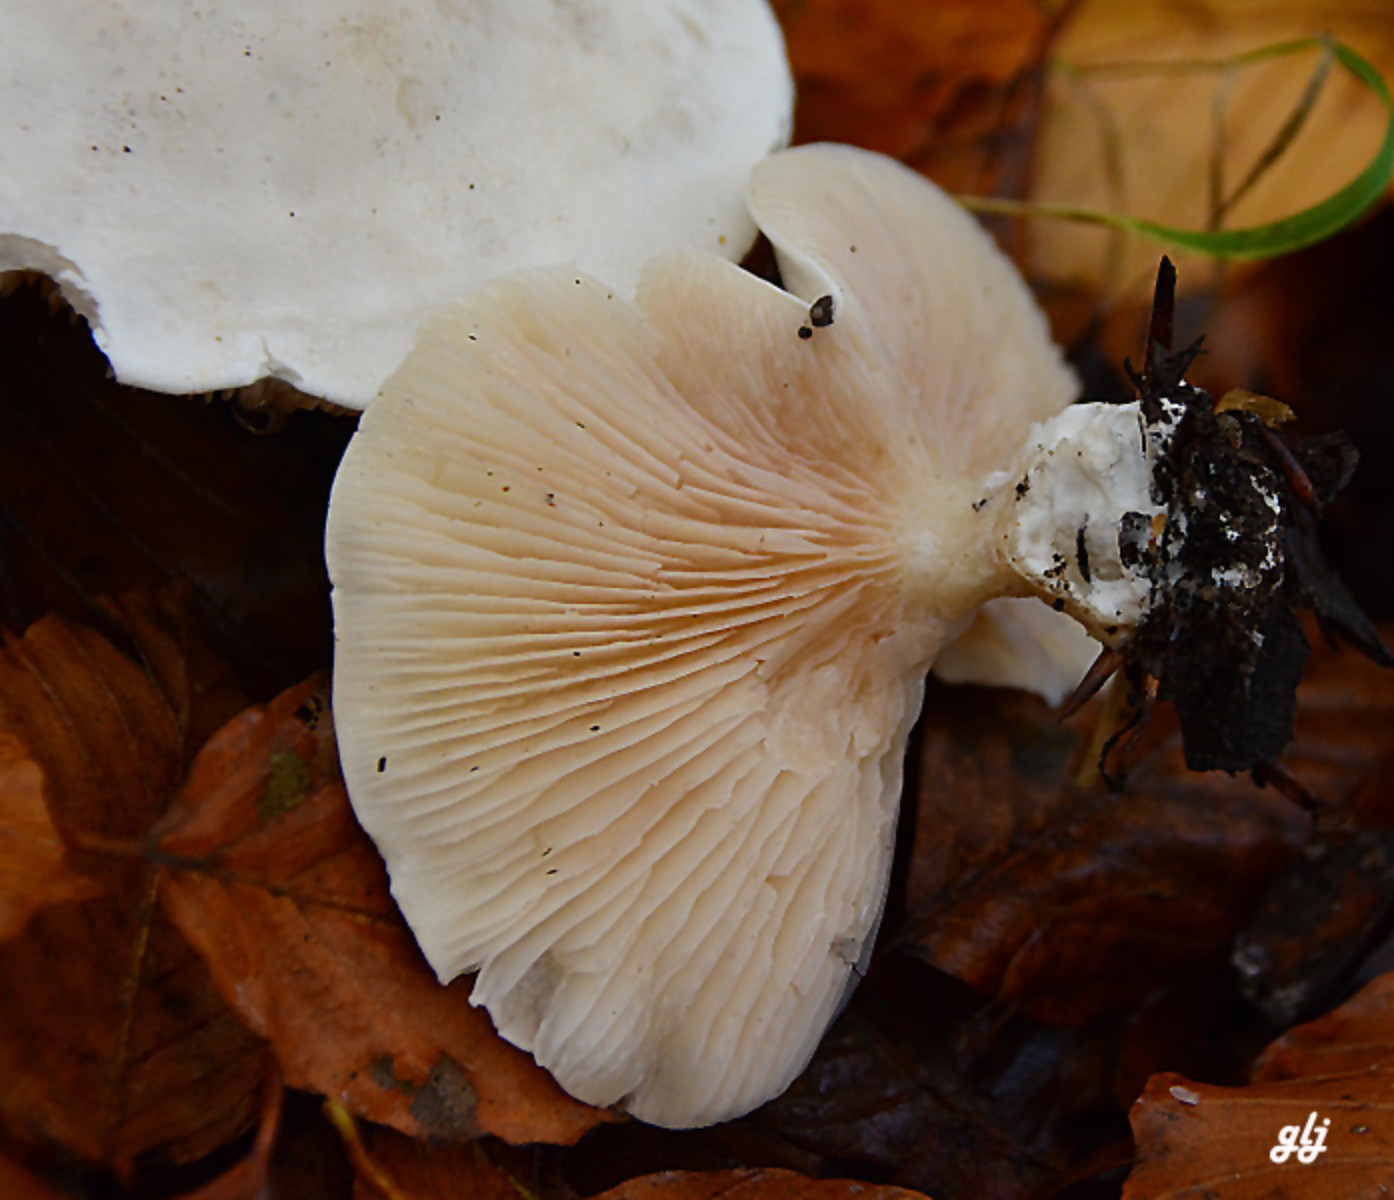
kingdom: Fungi
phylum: Basidiomycota
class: Agaricomycetes
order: Agaricales
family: Entolomataceae
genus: Clitopilus
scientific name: Clitopilus prunulus
